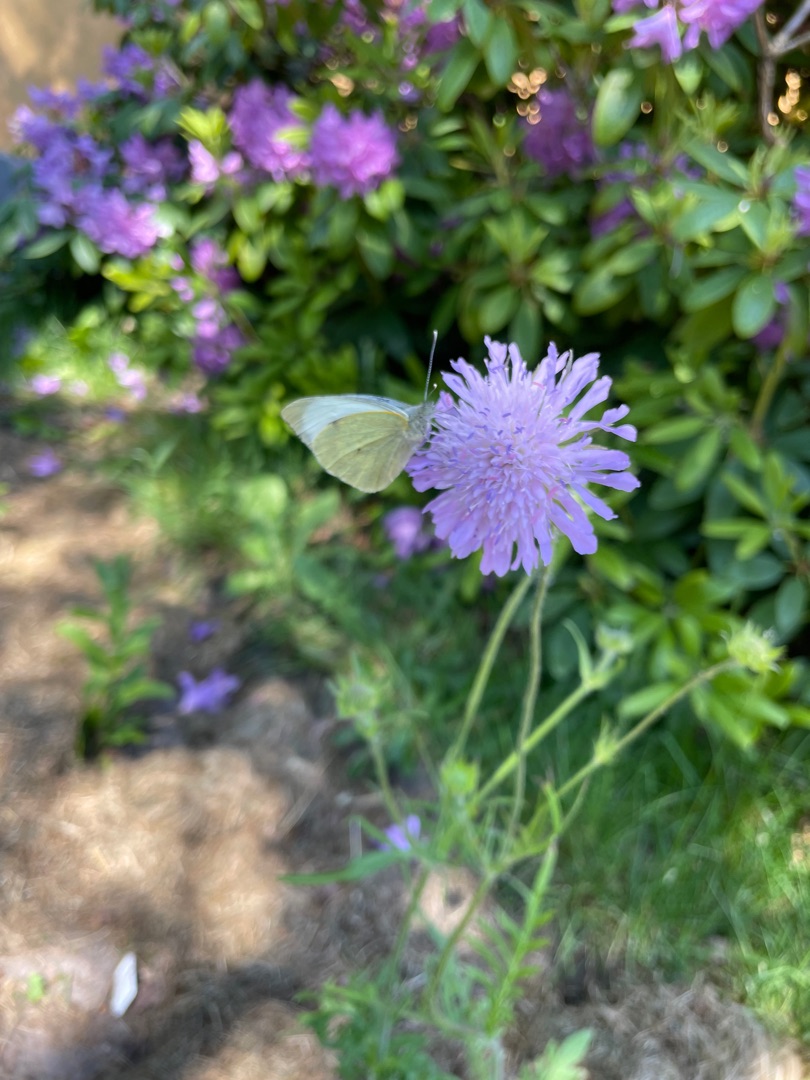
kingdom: Animalia
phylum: Arthropoda
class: Insecta
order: Lepidoptera
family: Pieridae
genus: Pieris
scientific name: Pieris brassicae
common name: Stor kålsommerfugl
